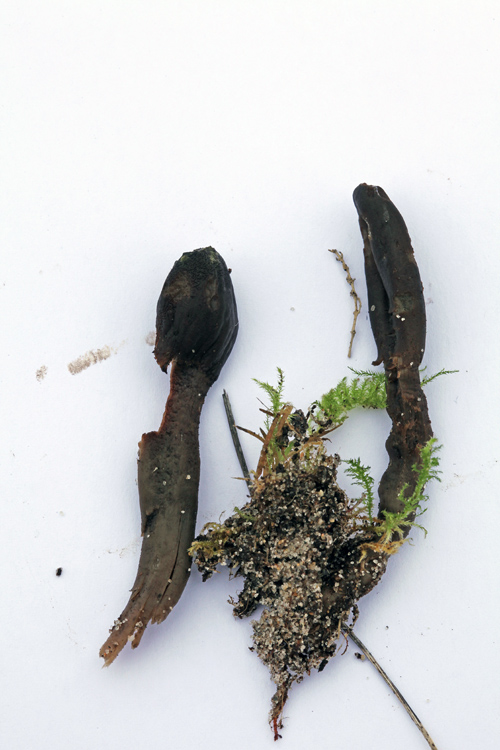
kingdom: Fungi
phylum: Ascomycota
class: Geoglossomycetes
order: Geoglossales
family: Geoglossaceae
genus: Geoglossum
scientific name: Geoglossum atropurpureum
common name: purpursort farvetunge
